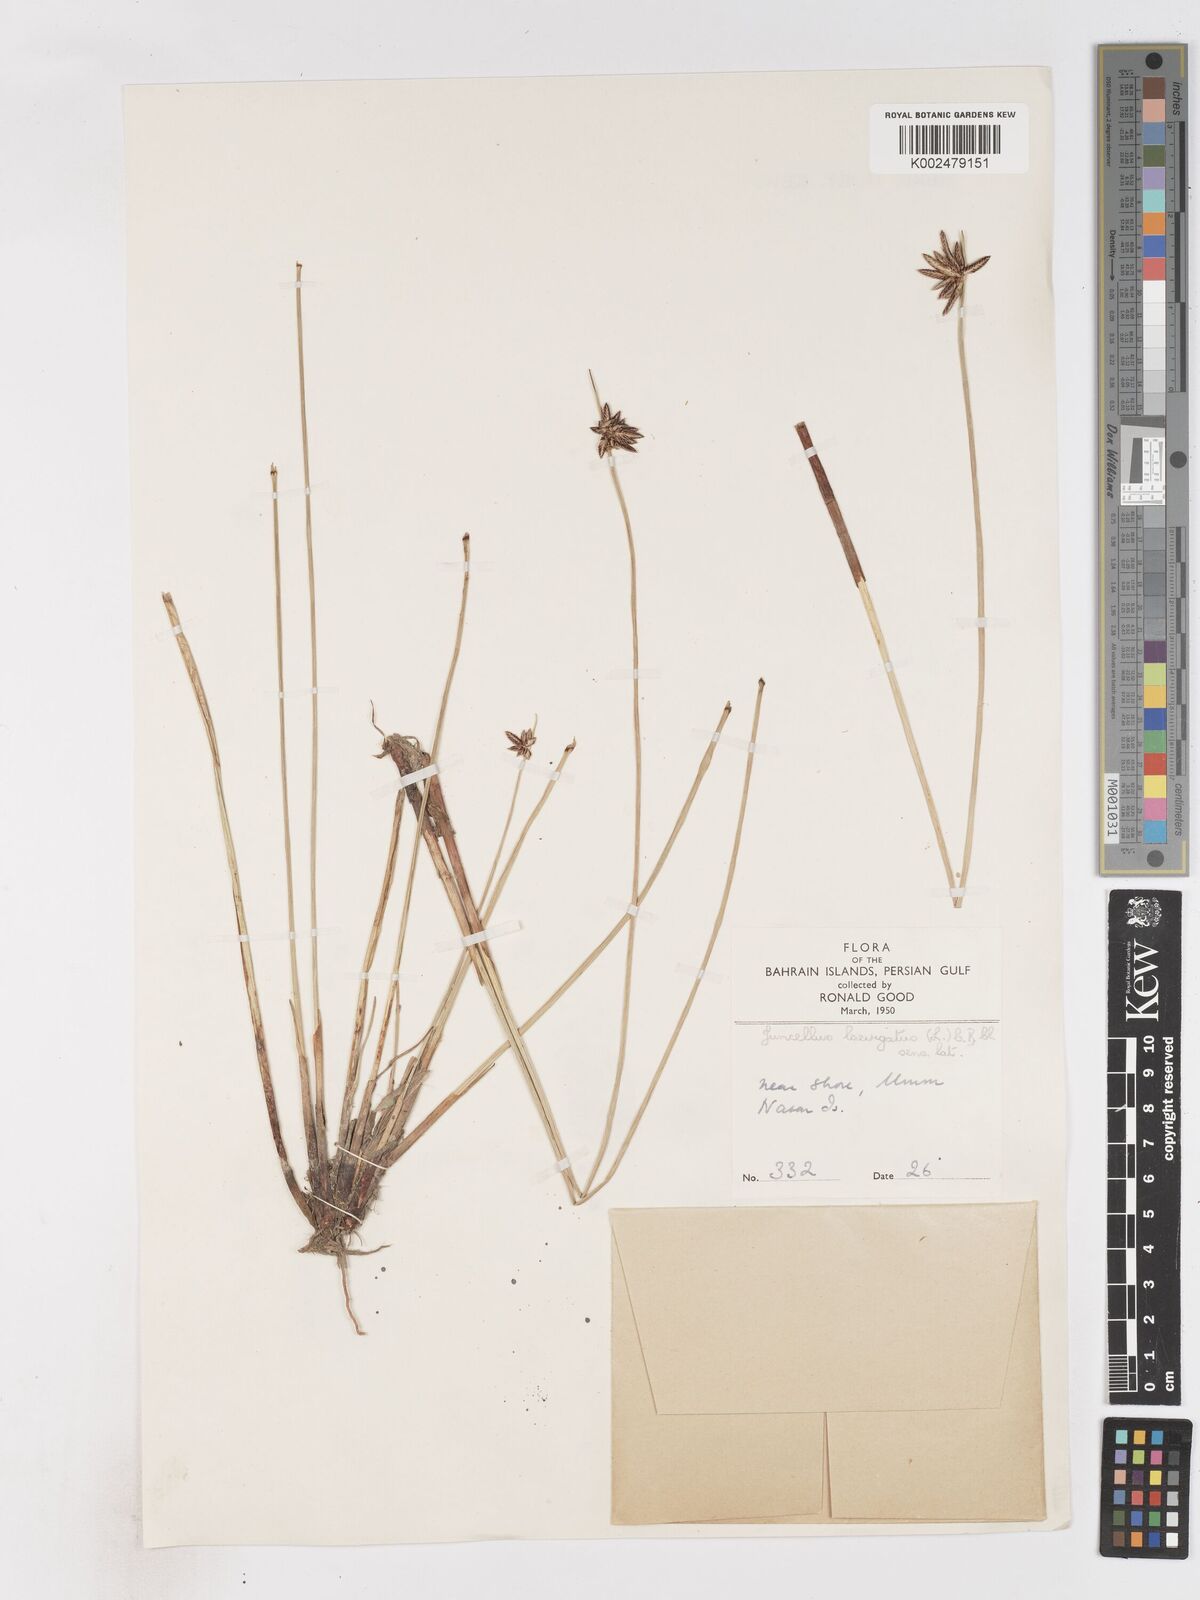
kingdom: Plantae
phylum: Tracheophyta
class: Liliopsida
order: Poales
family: Cyperaceae
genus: Cyperus
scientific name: Cyperus laevigatus
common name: Smooth flat sedge
